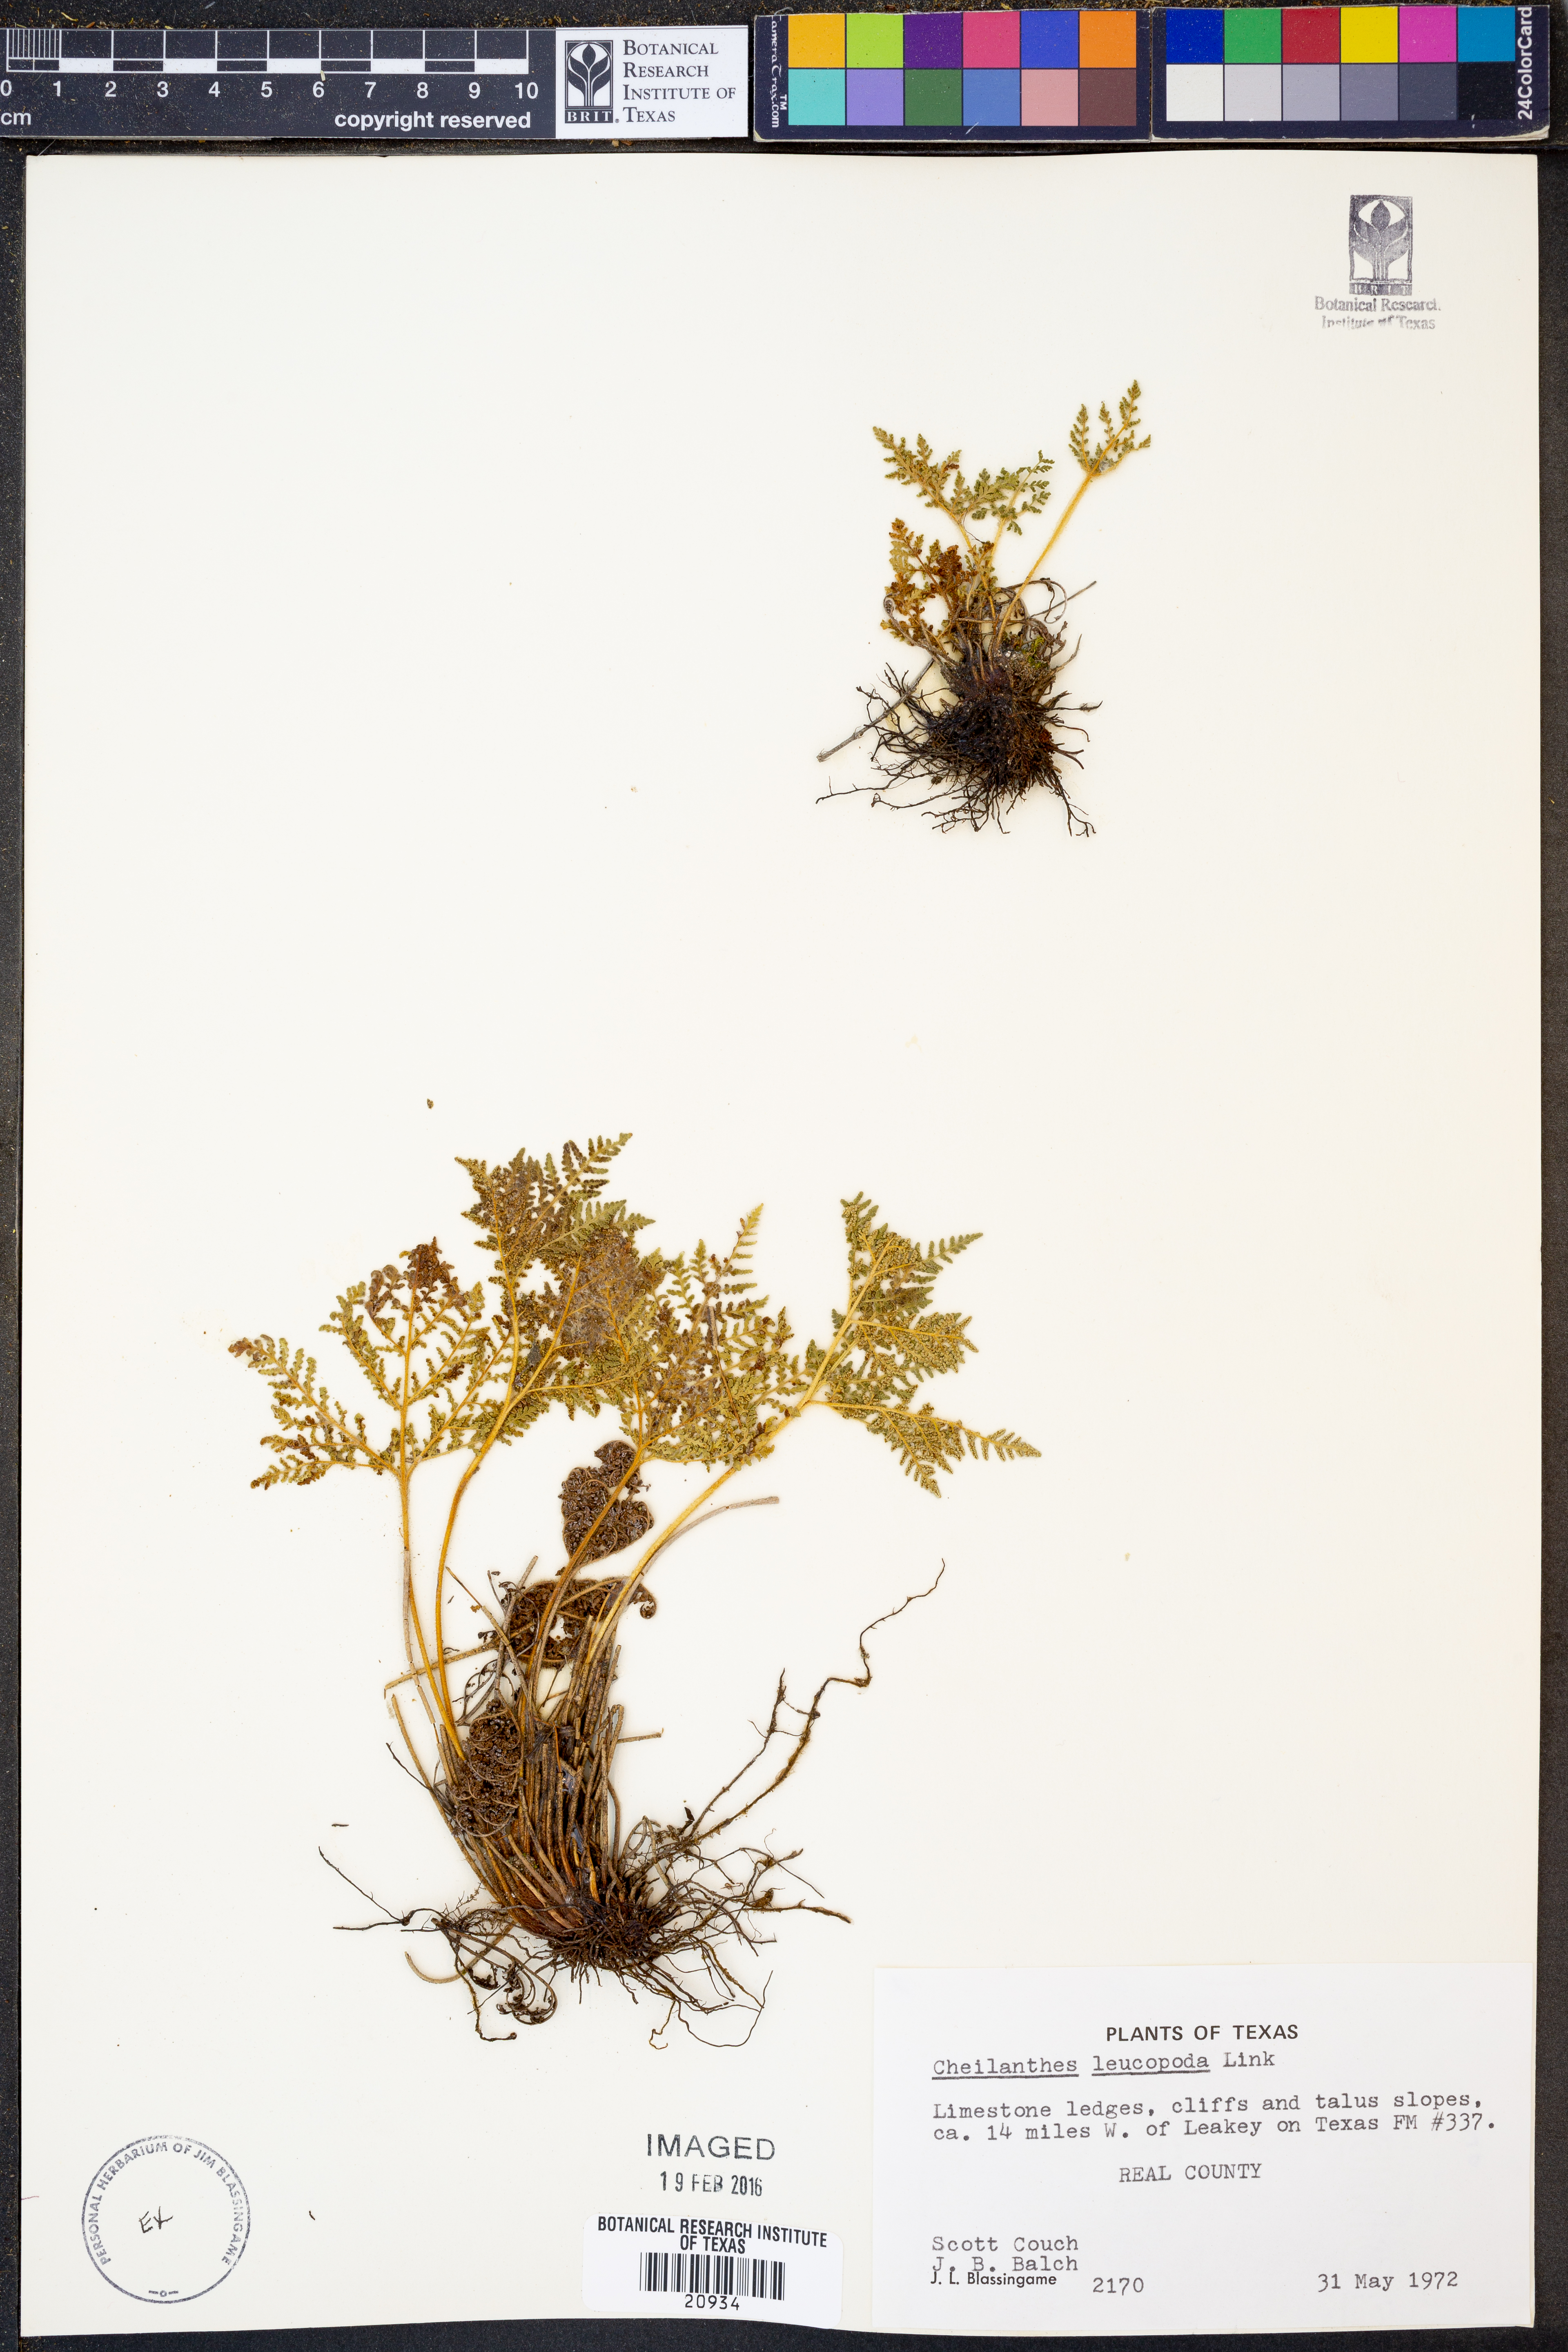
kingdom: Plantae
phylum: Tracheophyta
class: Polypodiopsida
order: Polypodiales
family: Pteridaceae
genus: Cheilanthes
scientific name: Cheilanthes leucopoda
